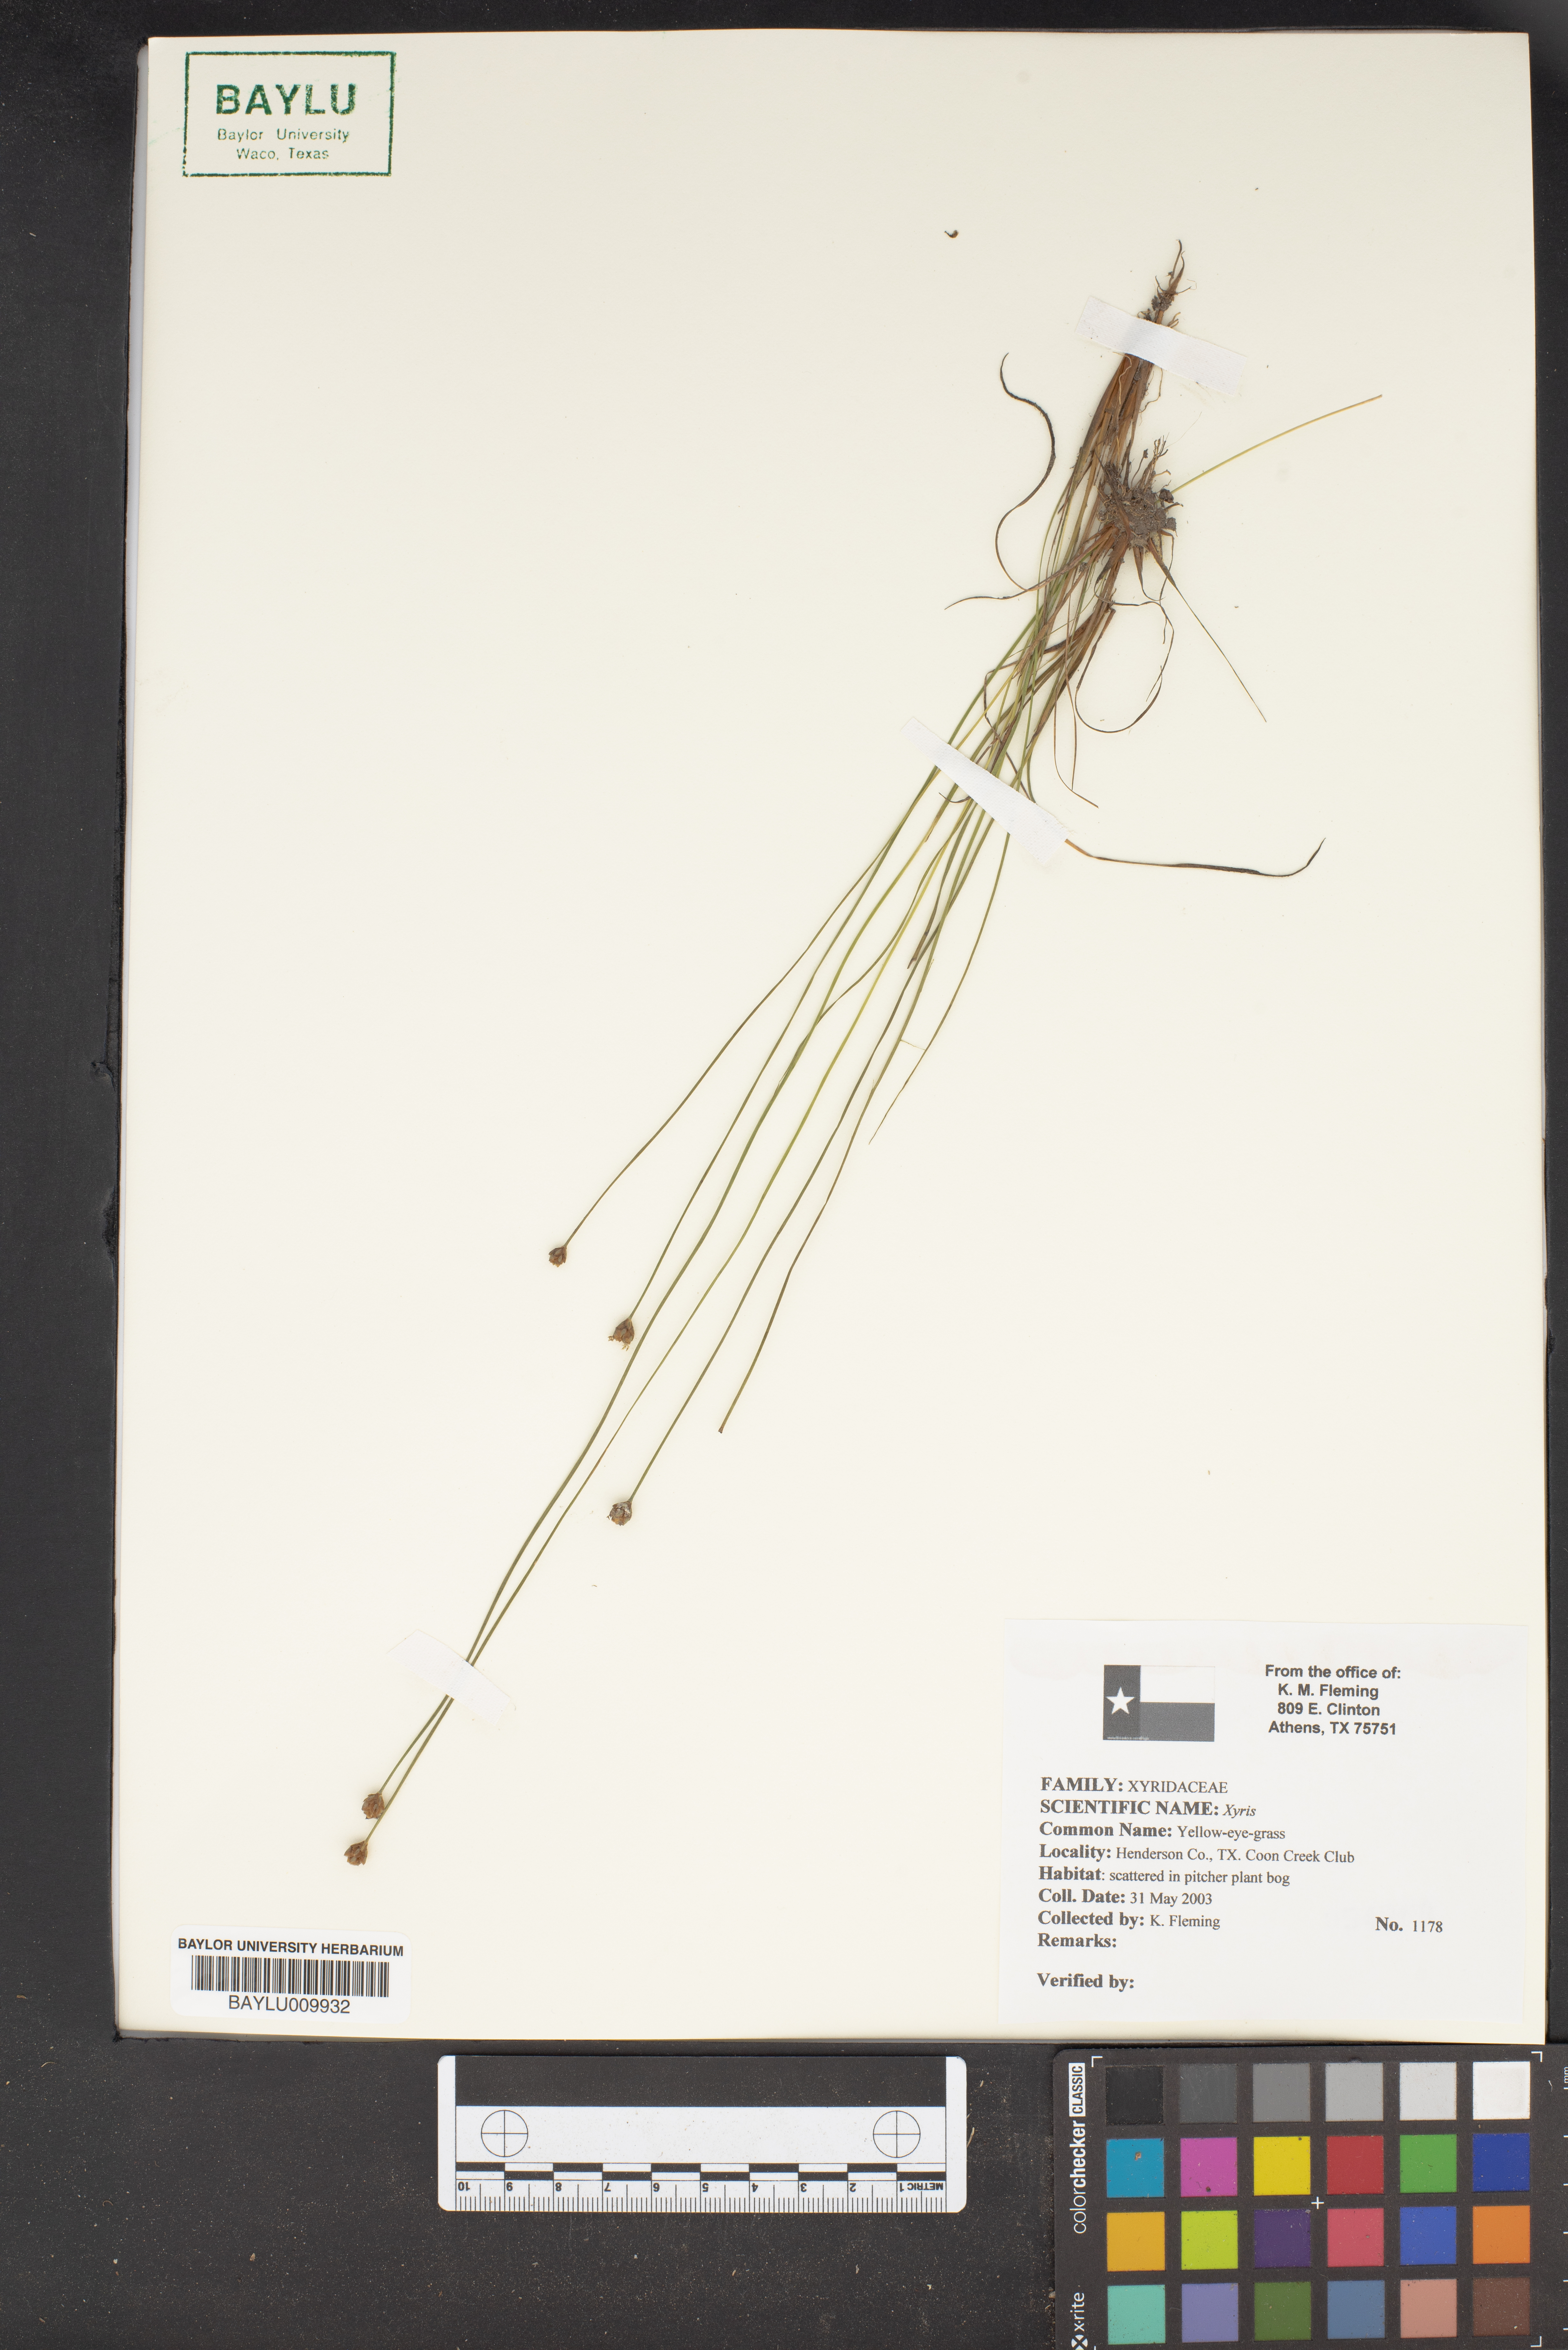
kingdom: Plantae
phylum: Tracheophyta
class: Liliopsida
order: Poales
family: Xyridaceae
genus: Xyris
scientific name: Xyris
